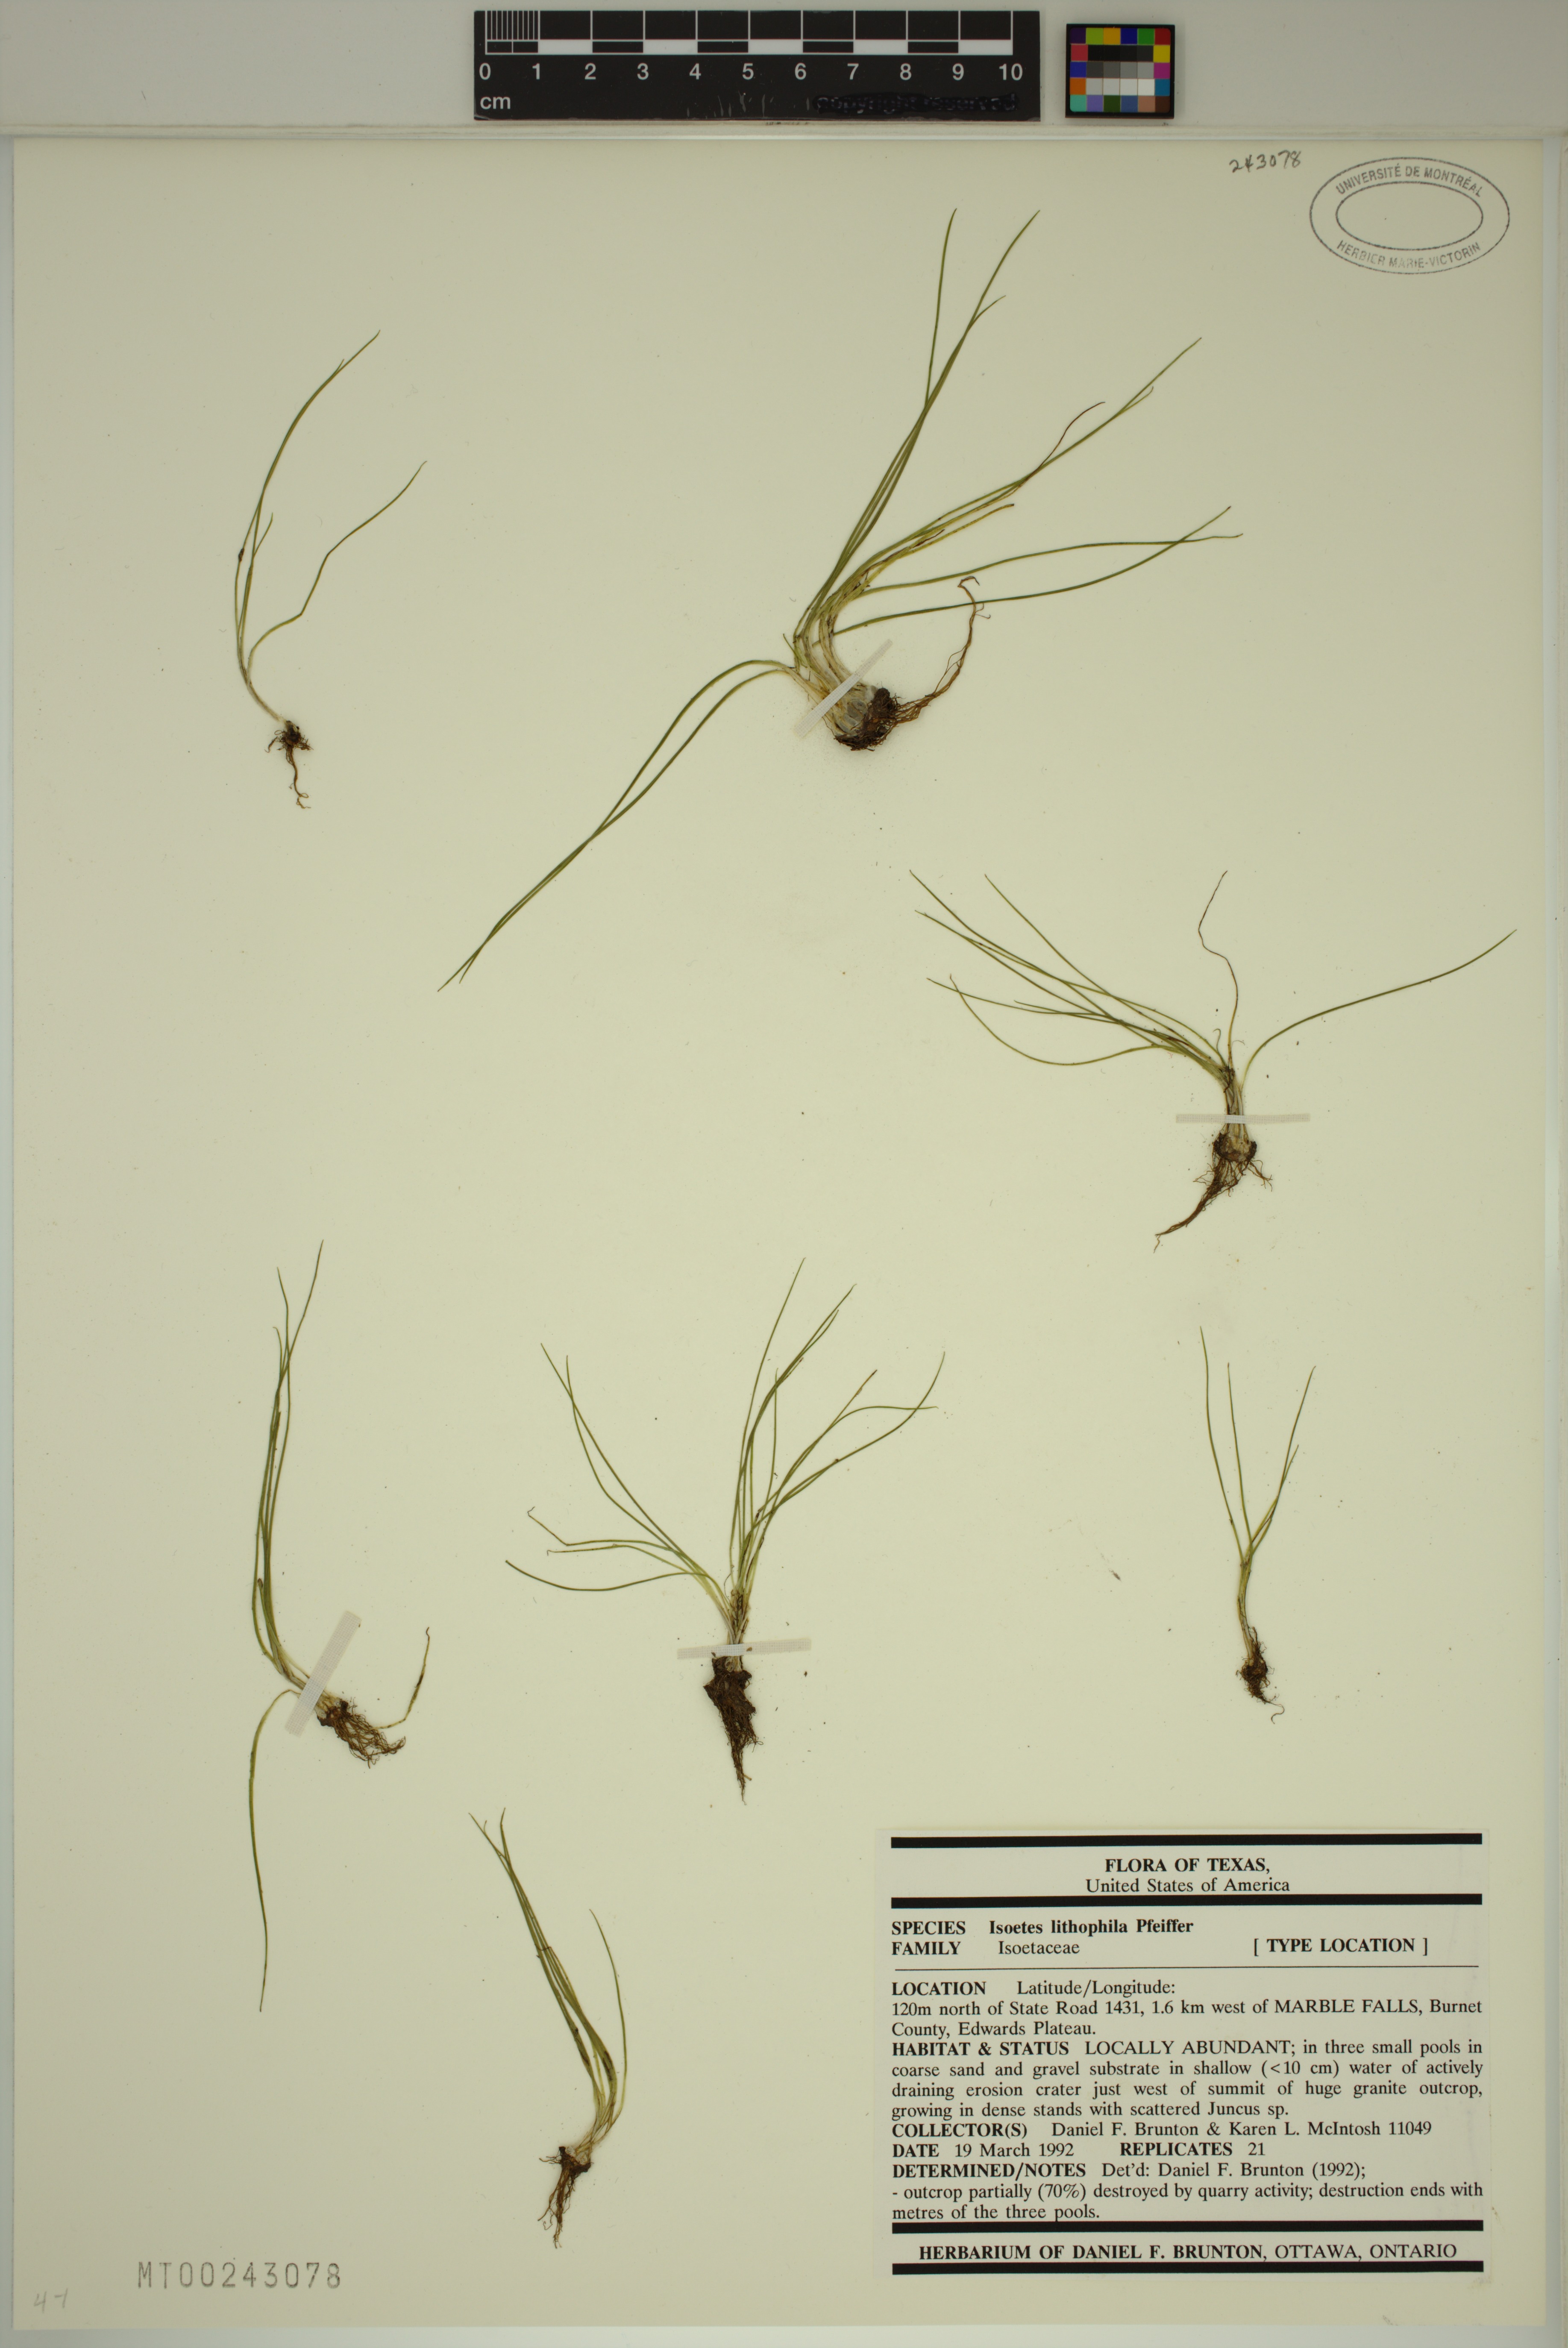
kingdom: Plantae
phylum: Tracheophyta
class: Lycopodiopsida
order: Isoetales
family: Isoetaceae
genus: Isoetes
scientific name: Isoetes lithophila
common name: Rock quillwort
